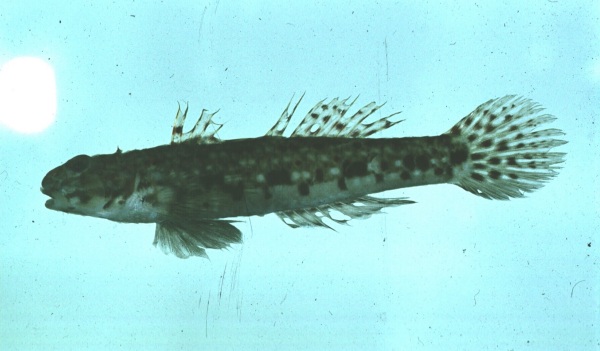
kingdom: Animalia
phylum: Chordata
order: Perciformes
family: Gobiidae
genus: Istigobius
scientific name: Istigobius decoratus
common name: Decorated goby
